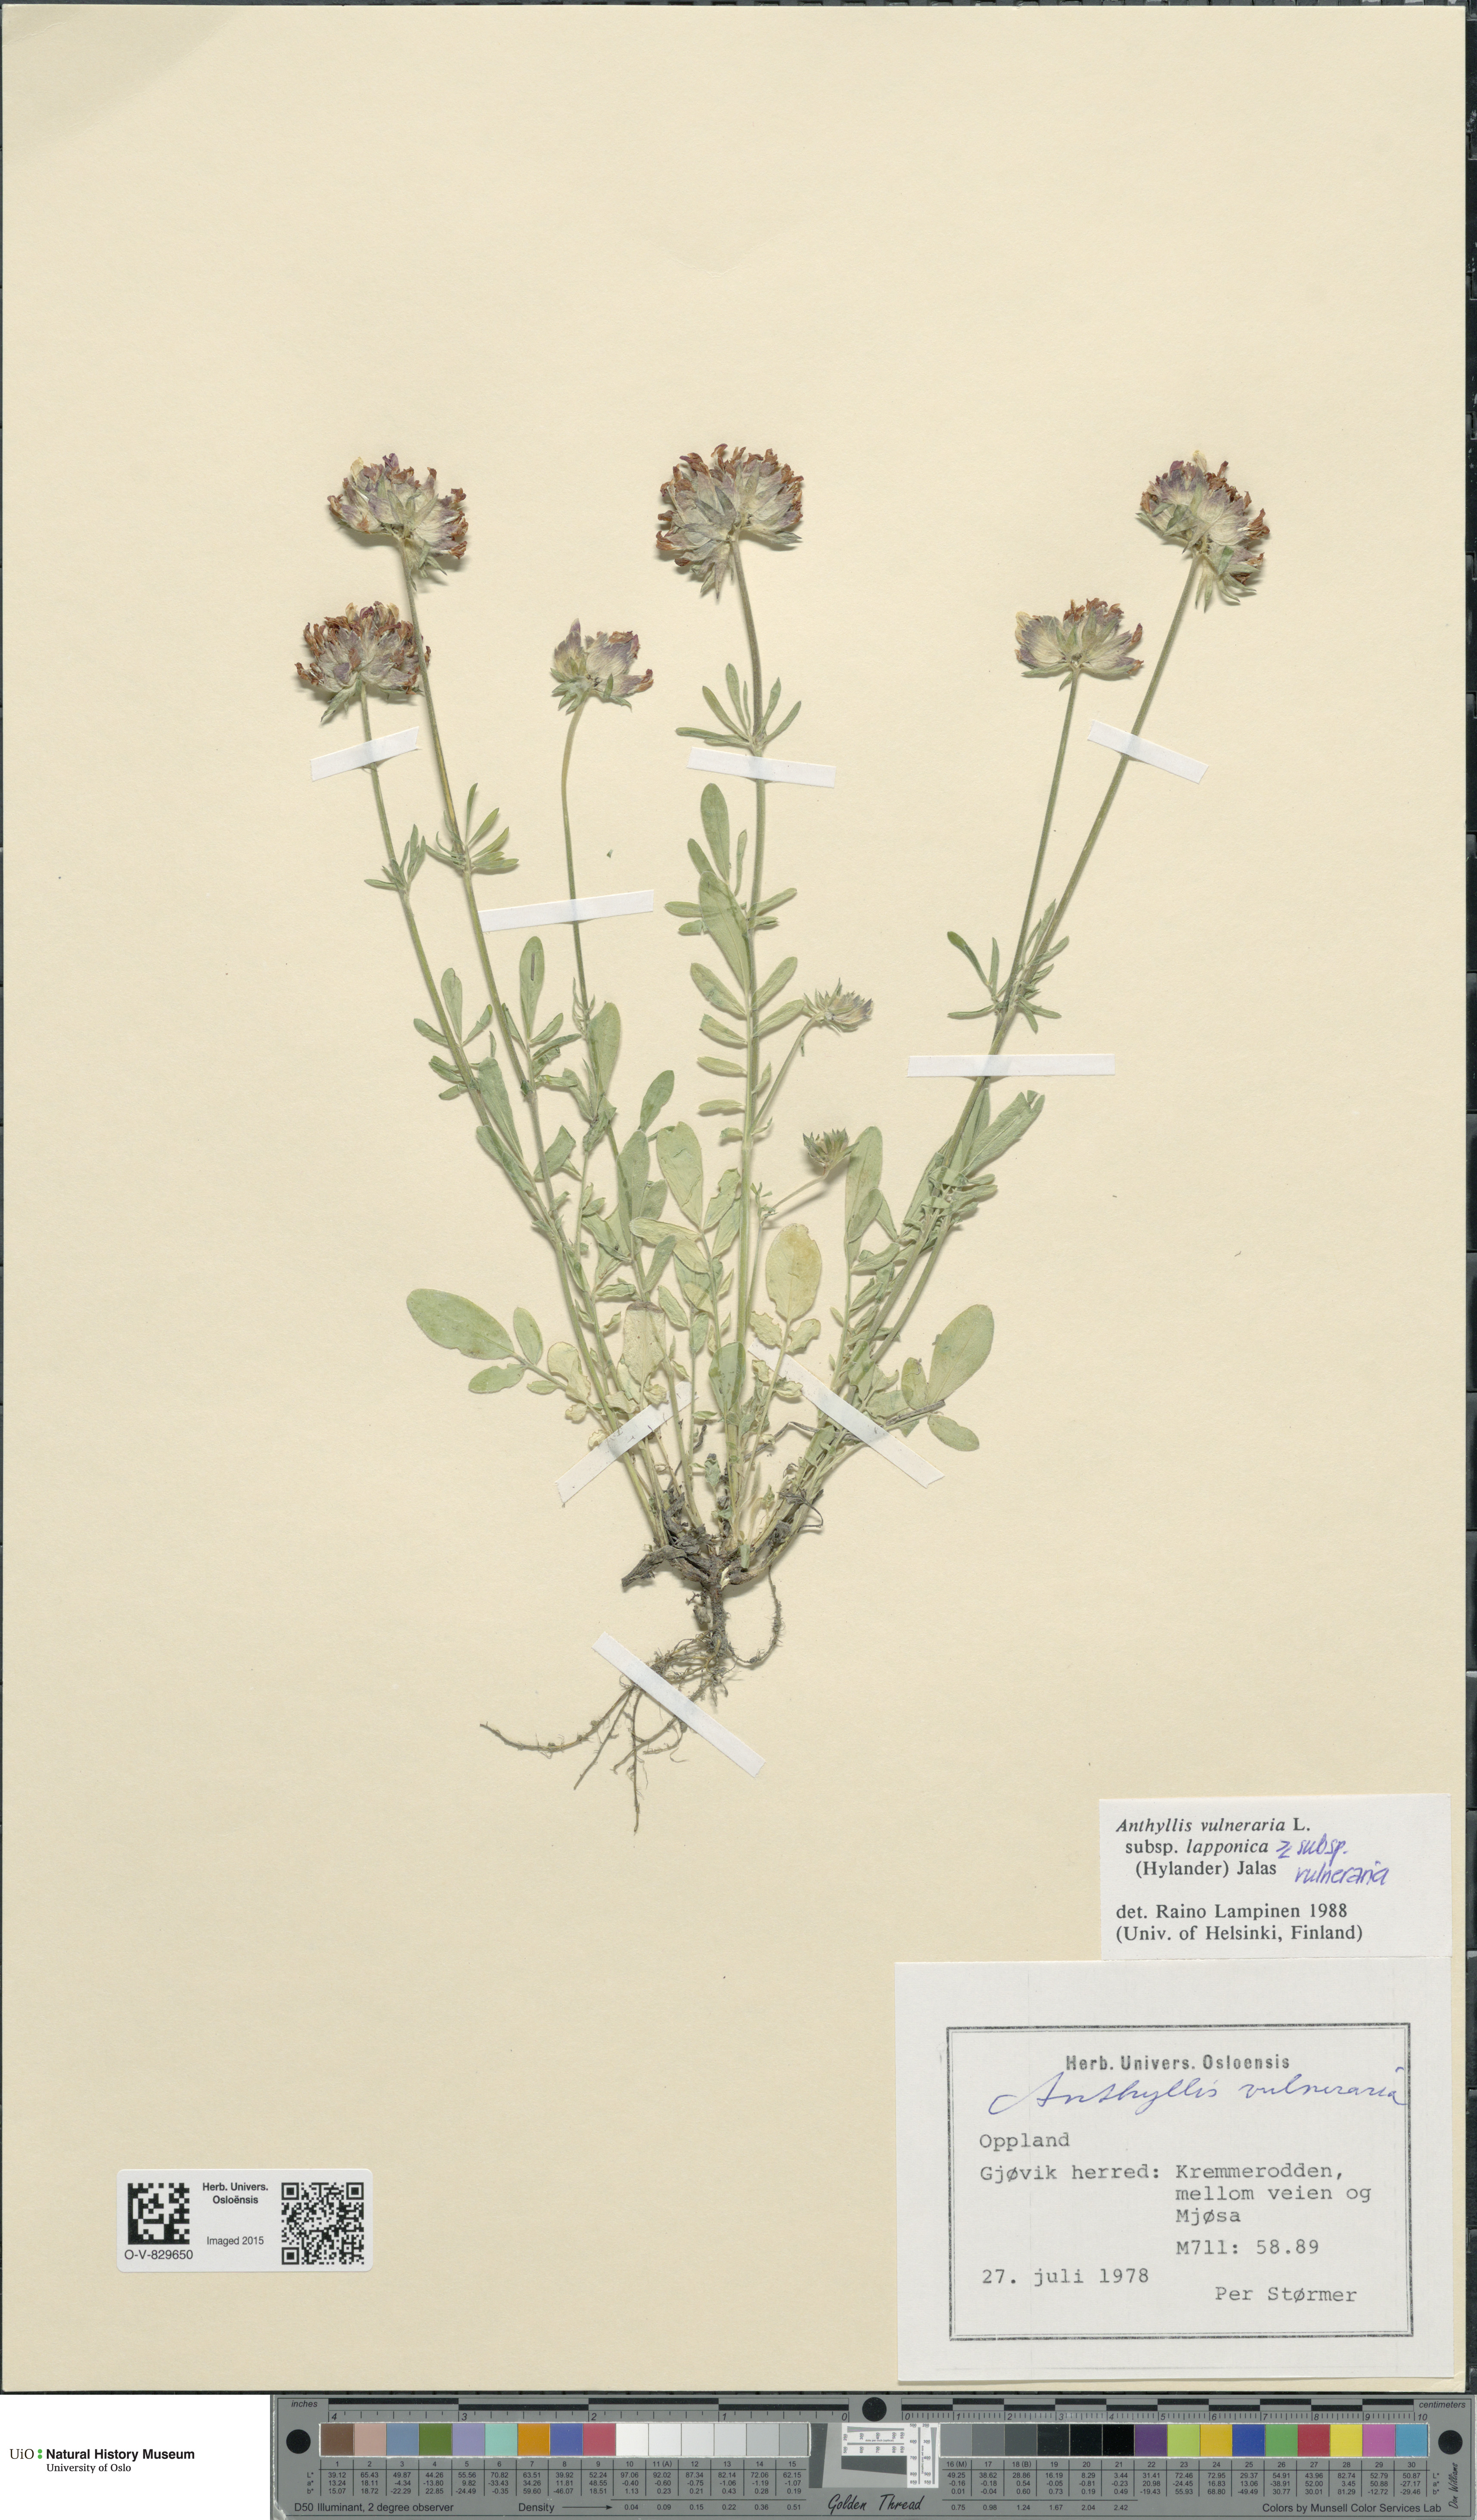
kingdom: Plantae
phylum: Tracheophyta
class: Magnoliopsida
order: Fabales
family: Fabaceae
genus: Anthyllis
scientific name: Anthyllis vulneraria
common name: Kidney vetch
